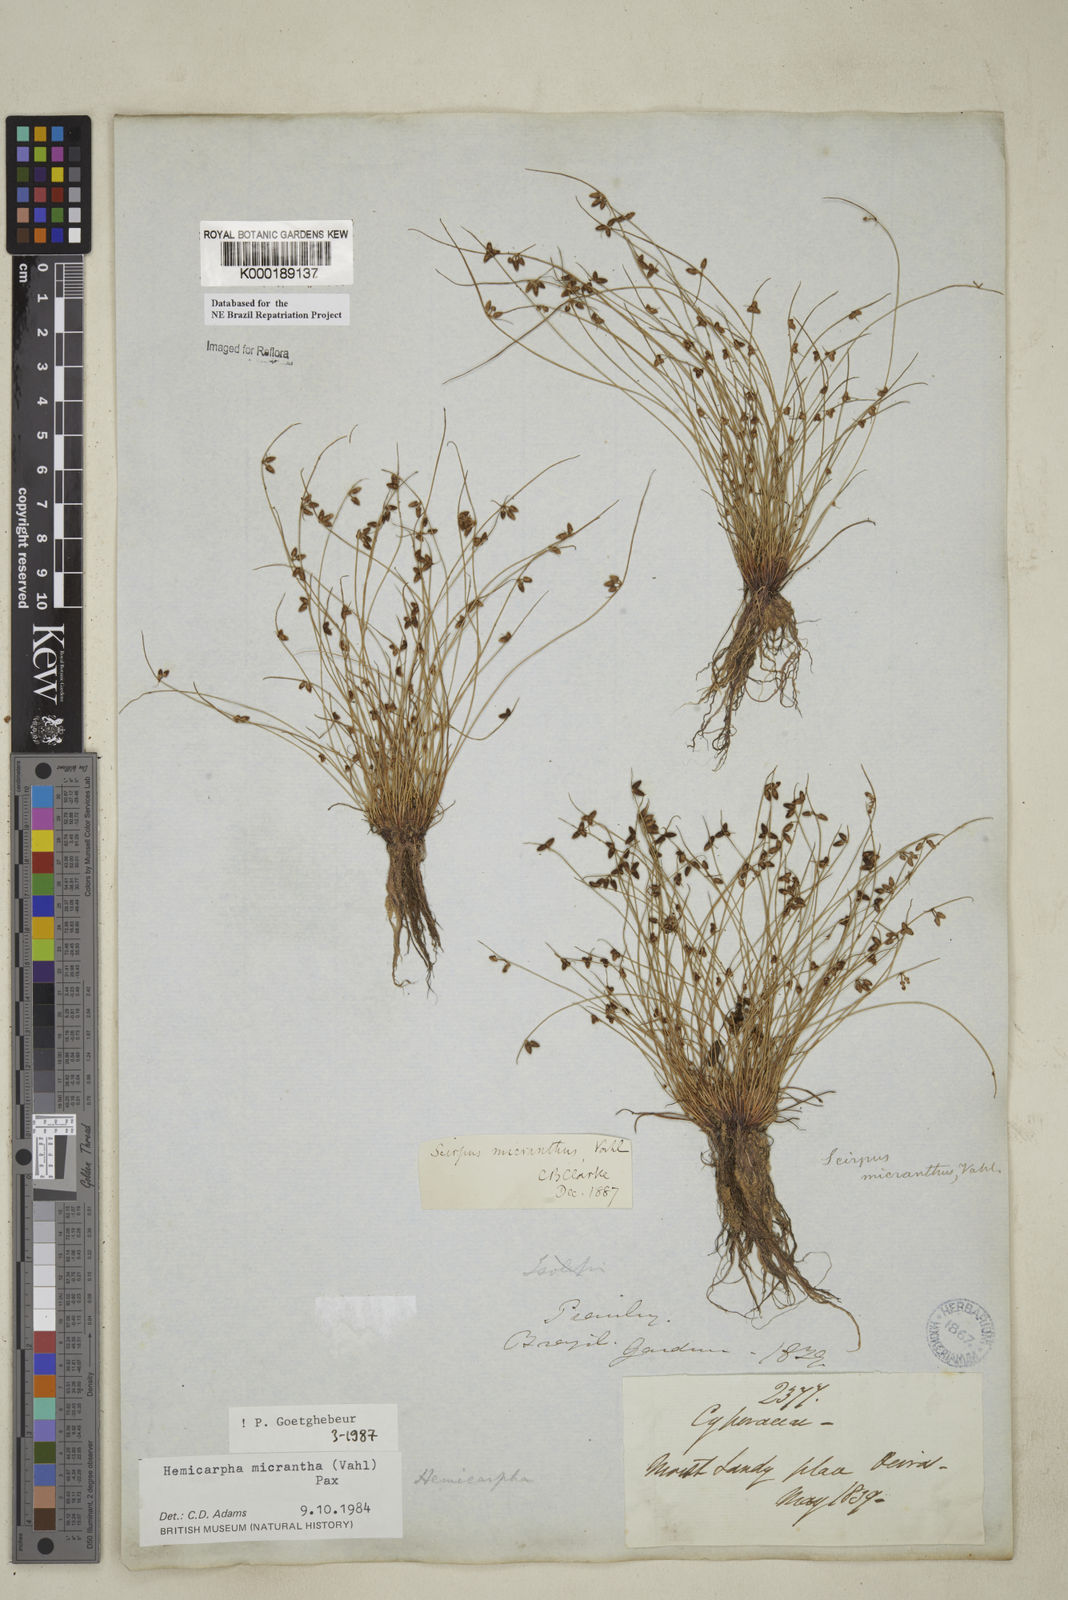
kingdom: Plantae
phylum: Tracheophyta
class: Liliopsida
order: Poales
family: Cyperaceae
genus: Cyperus
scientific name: Cyperus subsquarrosus
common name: Dwarf bulrush
